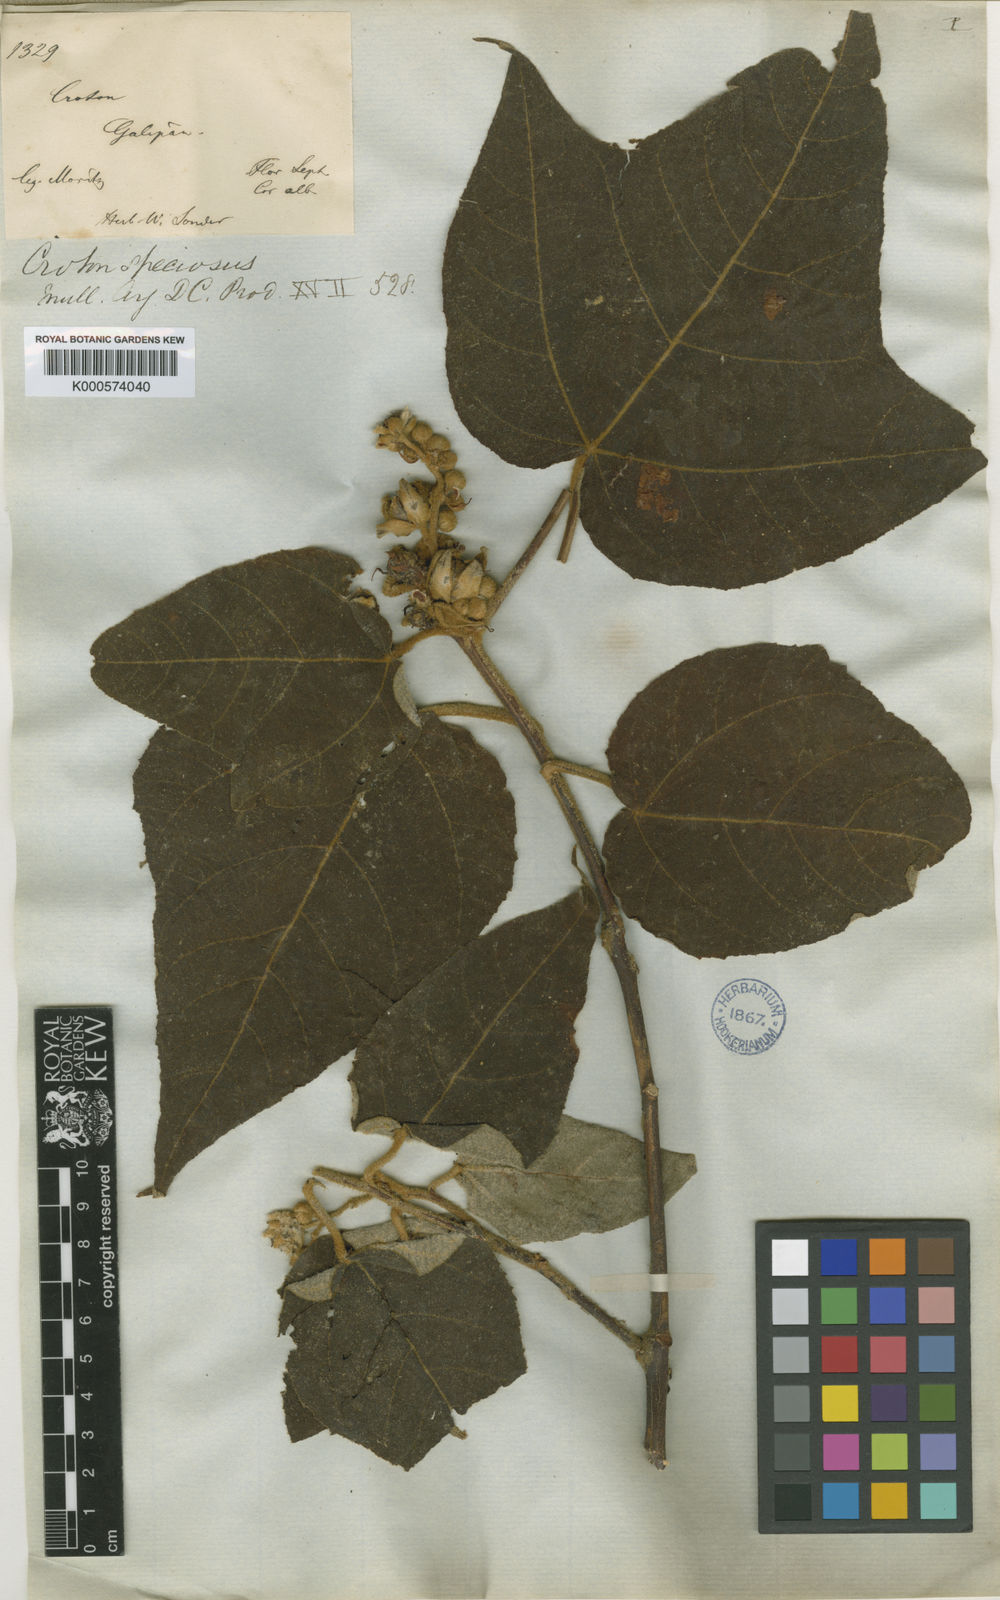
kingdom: Plantae
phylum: Tracheophyta
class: Magnoliopsida
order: Malpighiales
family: Euphorbiaceae
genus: Croton
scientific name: Croton
